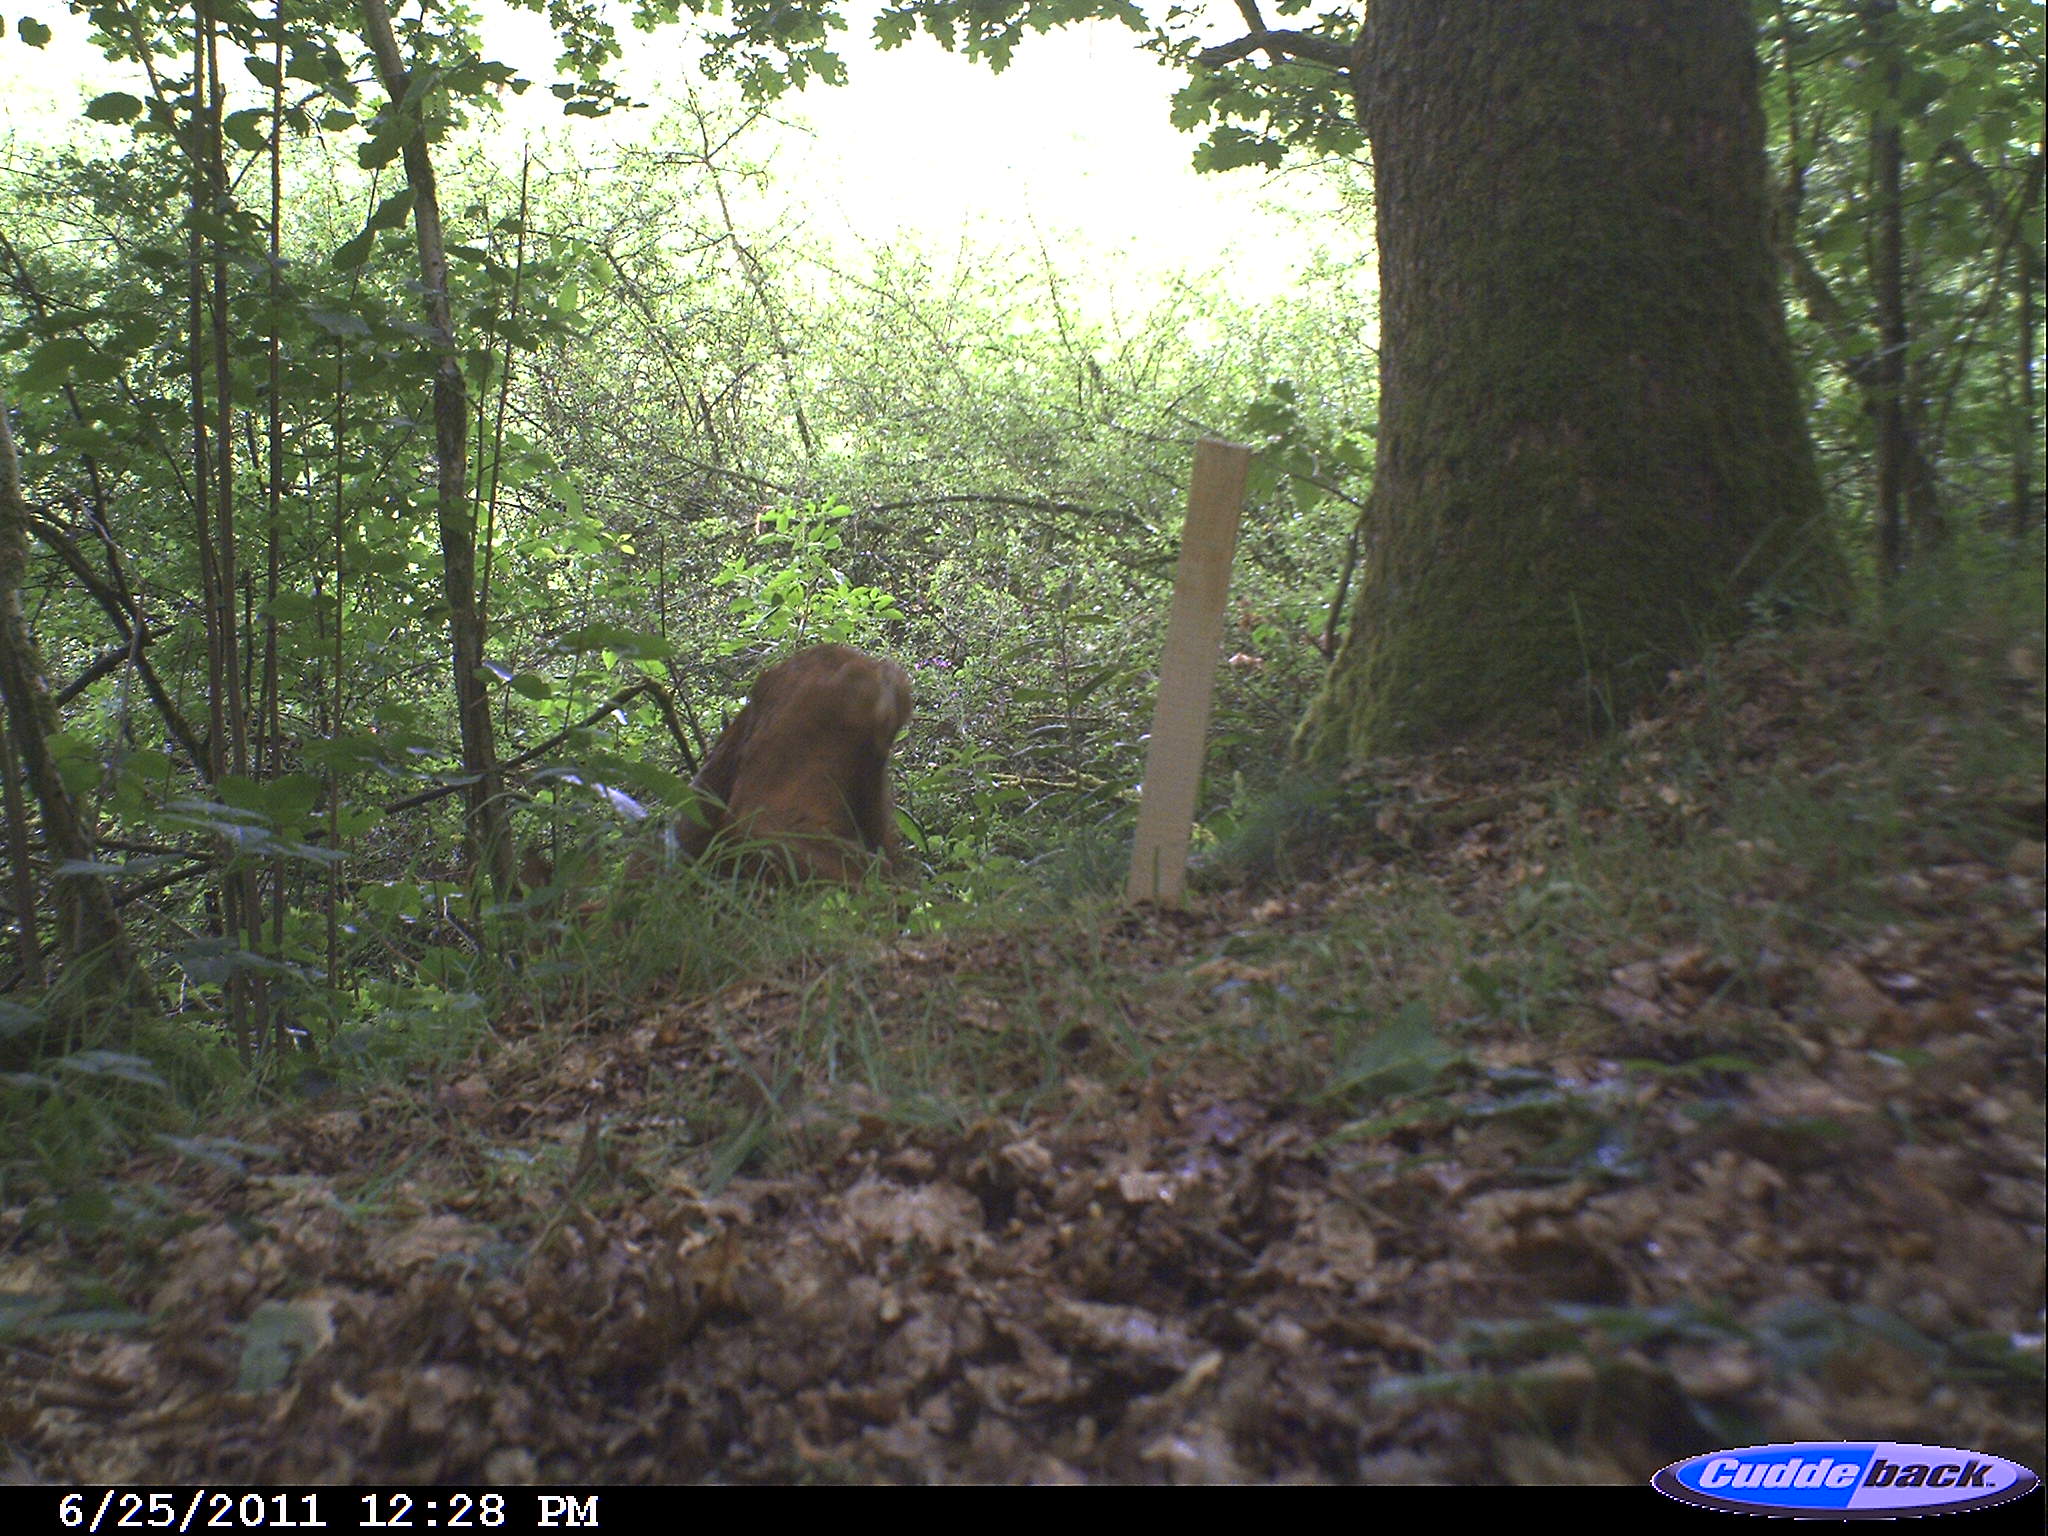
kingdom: Animalia
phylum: Chordata
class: Mammalia
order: Artiodactyla
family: Cervidae
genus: Capreolus
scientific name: Capreolus capreolus
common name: Western roe deer
